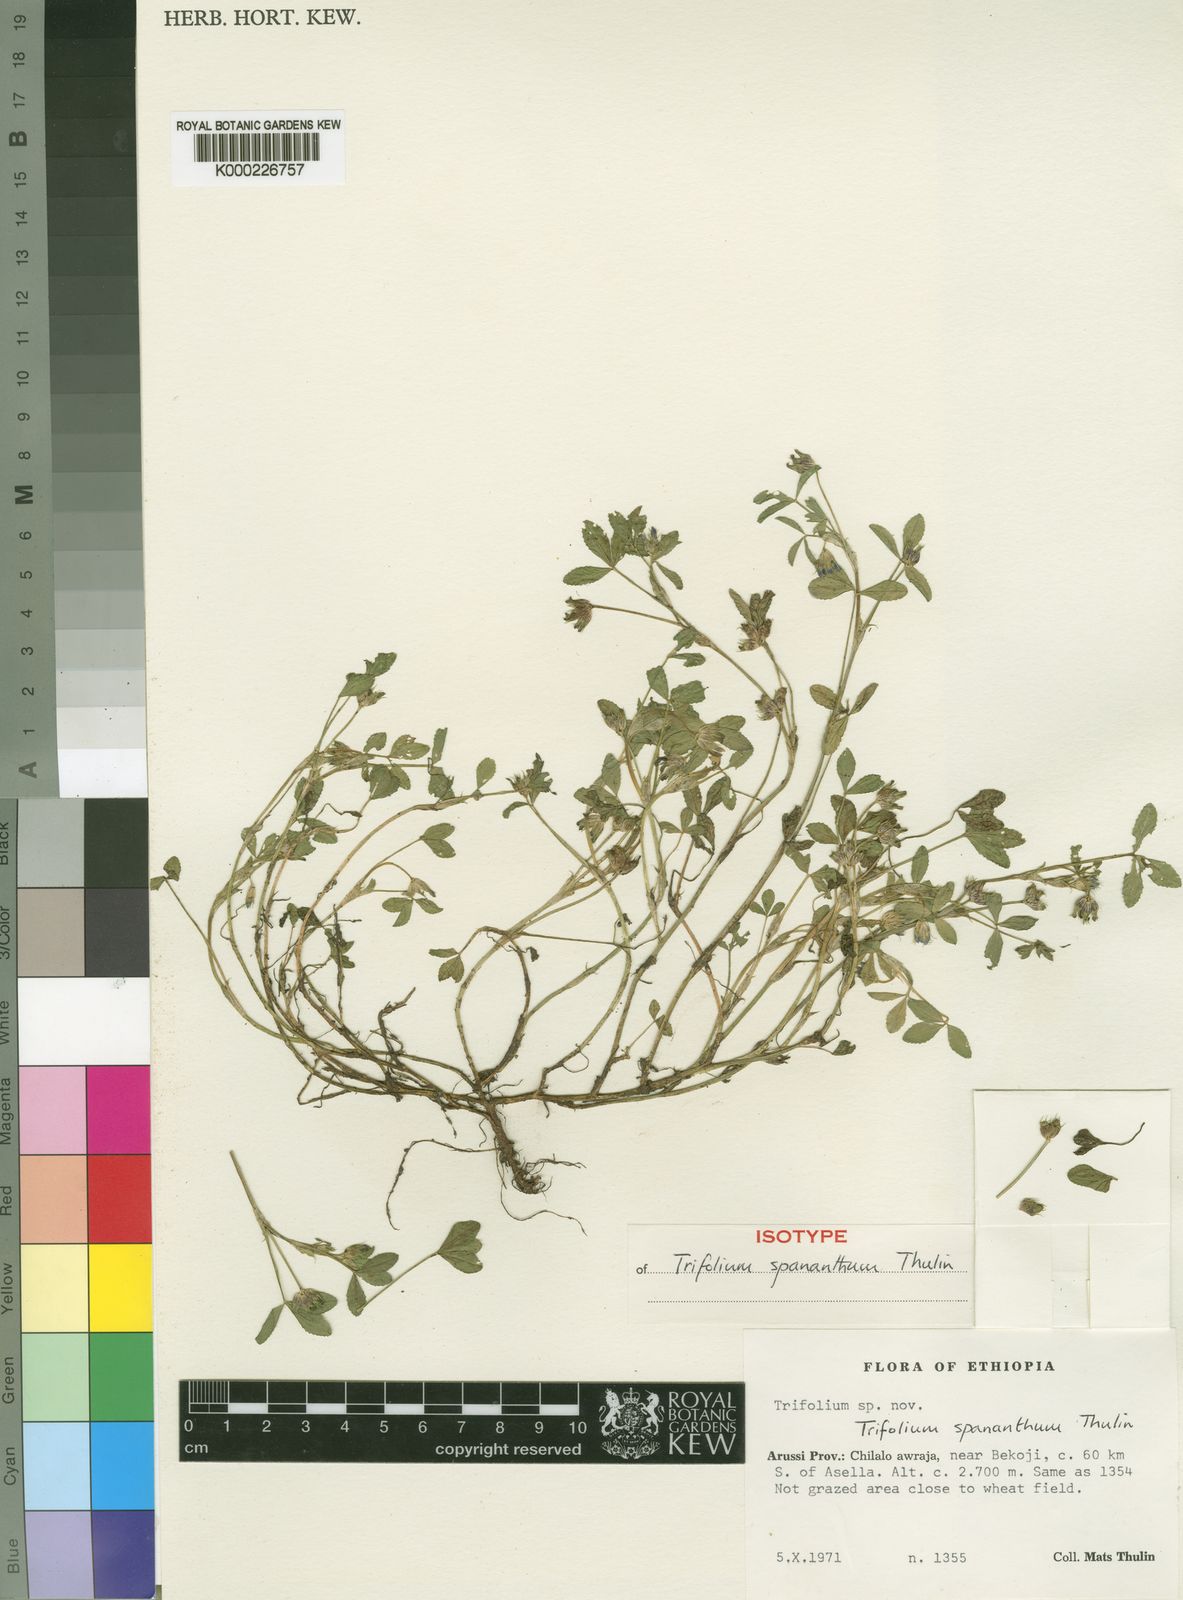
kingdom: Plantae
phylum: Tracheophyta
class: Magnoliopsida
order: Fabales
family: Fabaceae
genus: Trifolium
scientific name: Trifolium spananthum
